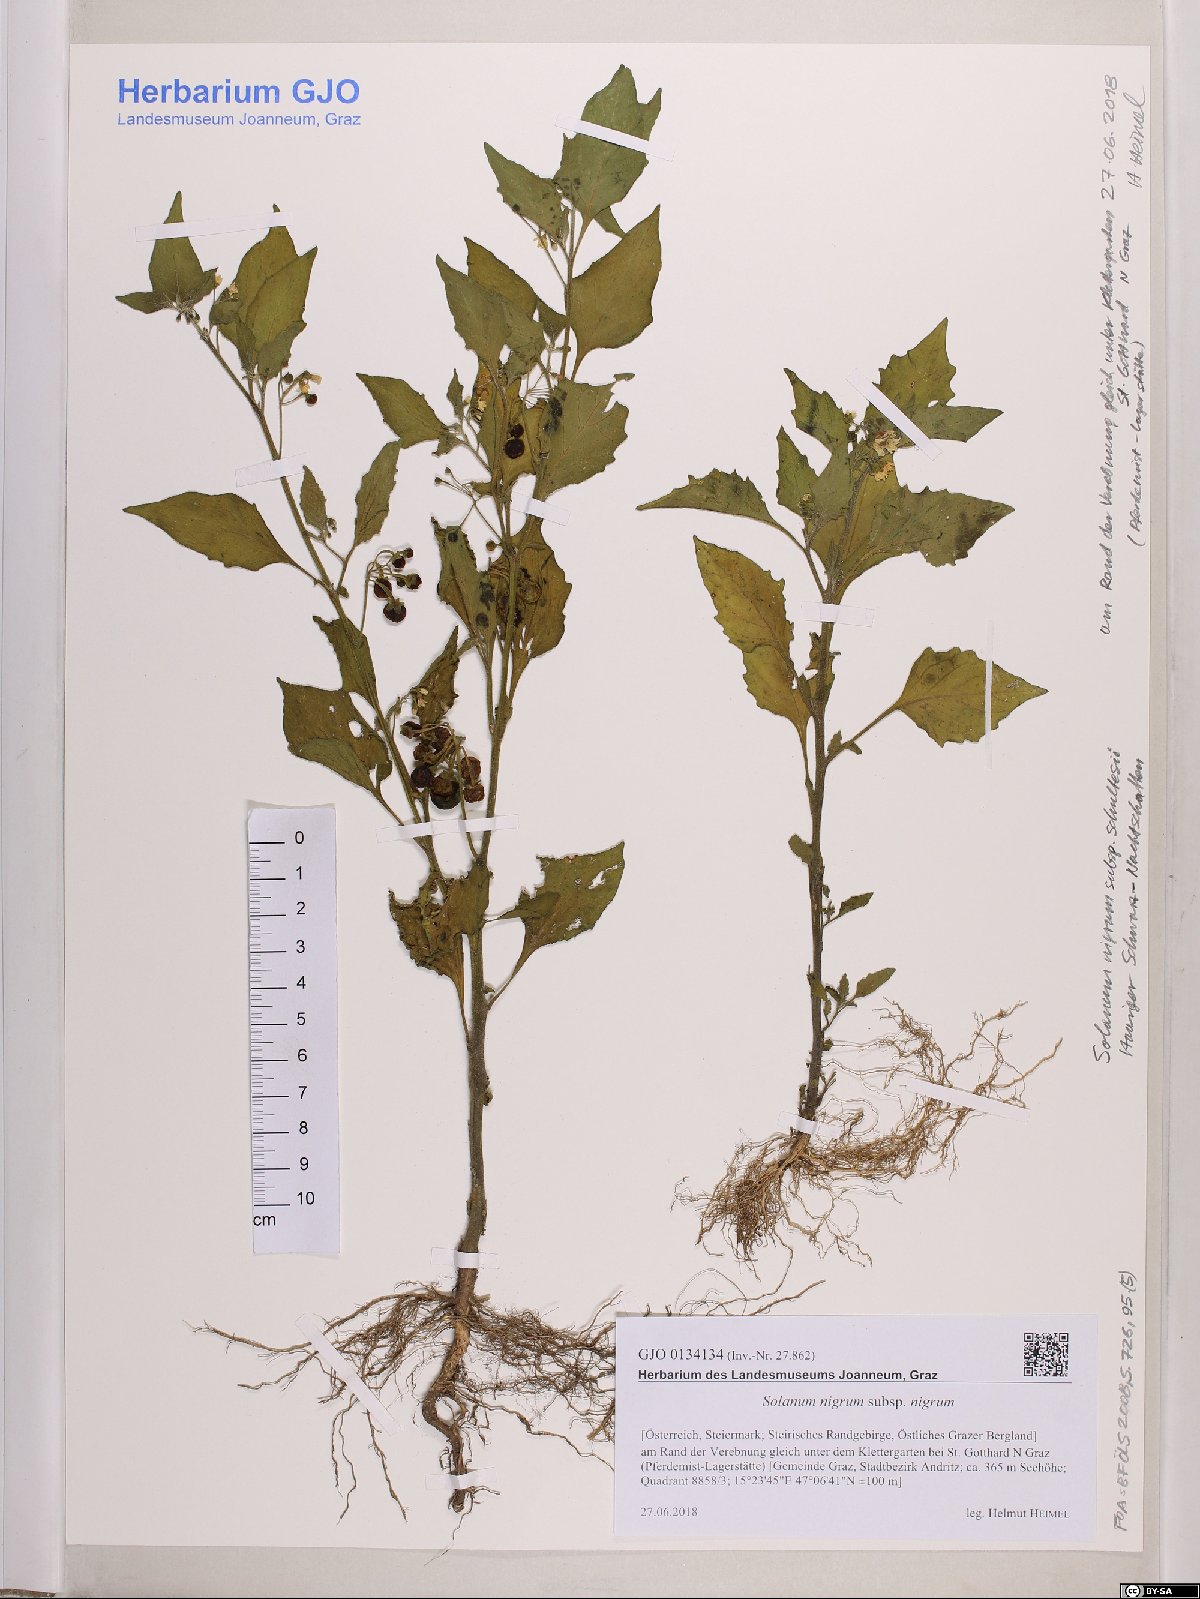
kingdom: Plantae
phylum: Tracheophyta
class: Magnoliopsida
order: Solanales
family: Solanaceae
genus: Solanum
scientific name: Solanum nigrum
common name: Black nightshade
